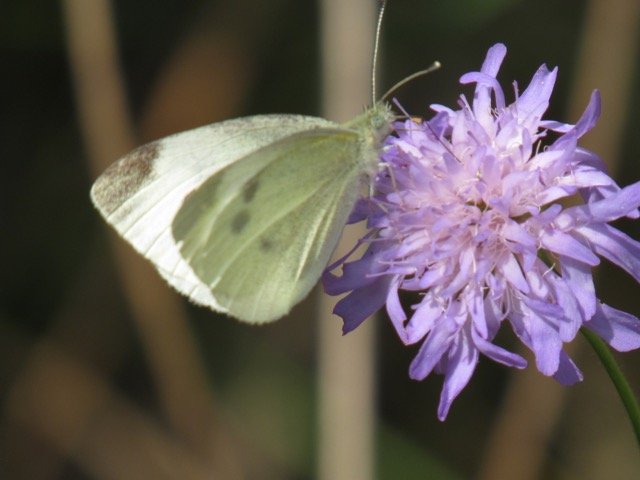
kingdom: Animalia
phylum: Arthropoda
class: Insecta
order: Lepidoptera
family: Pieridae
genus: Pieris
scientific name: Pieris rapae
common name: Cabbage White
